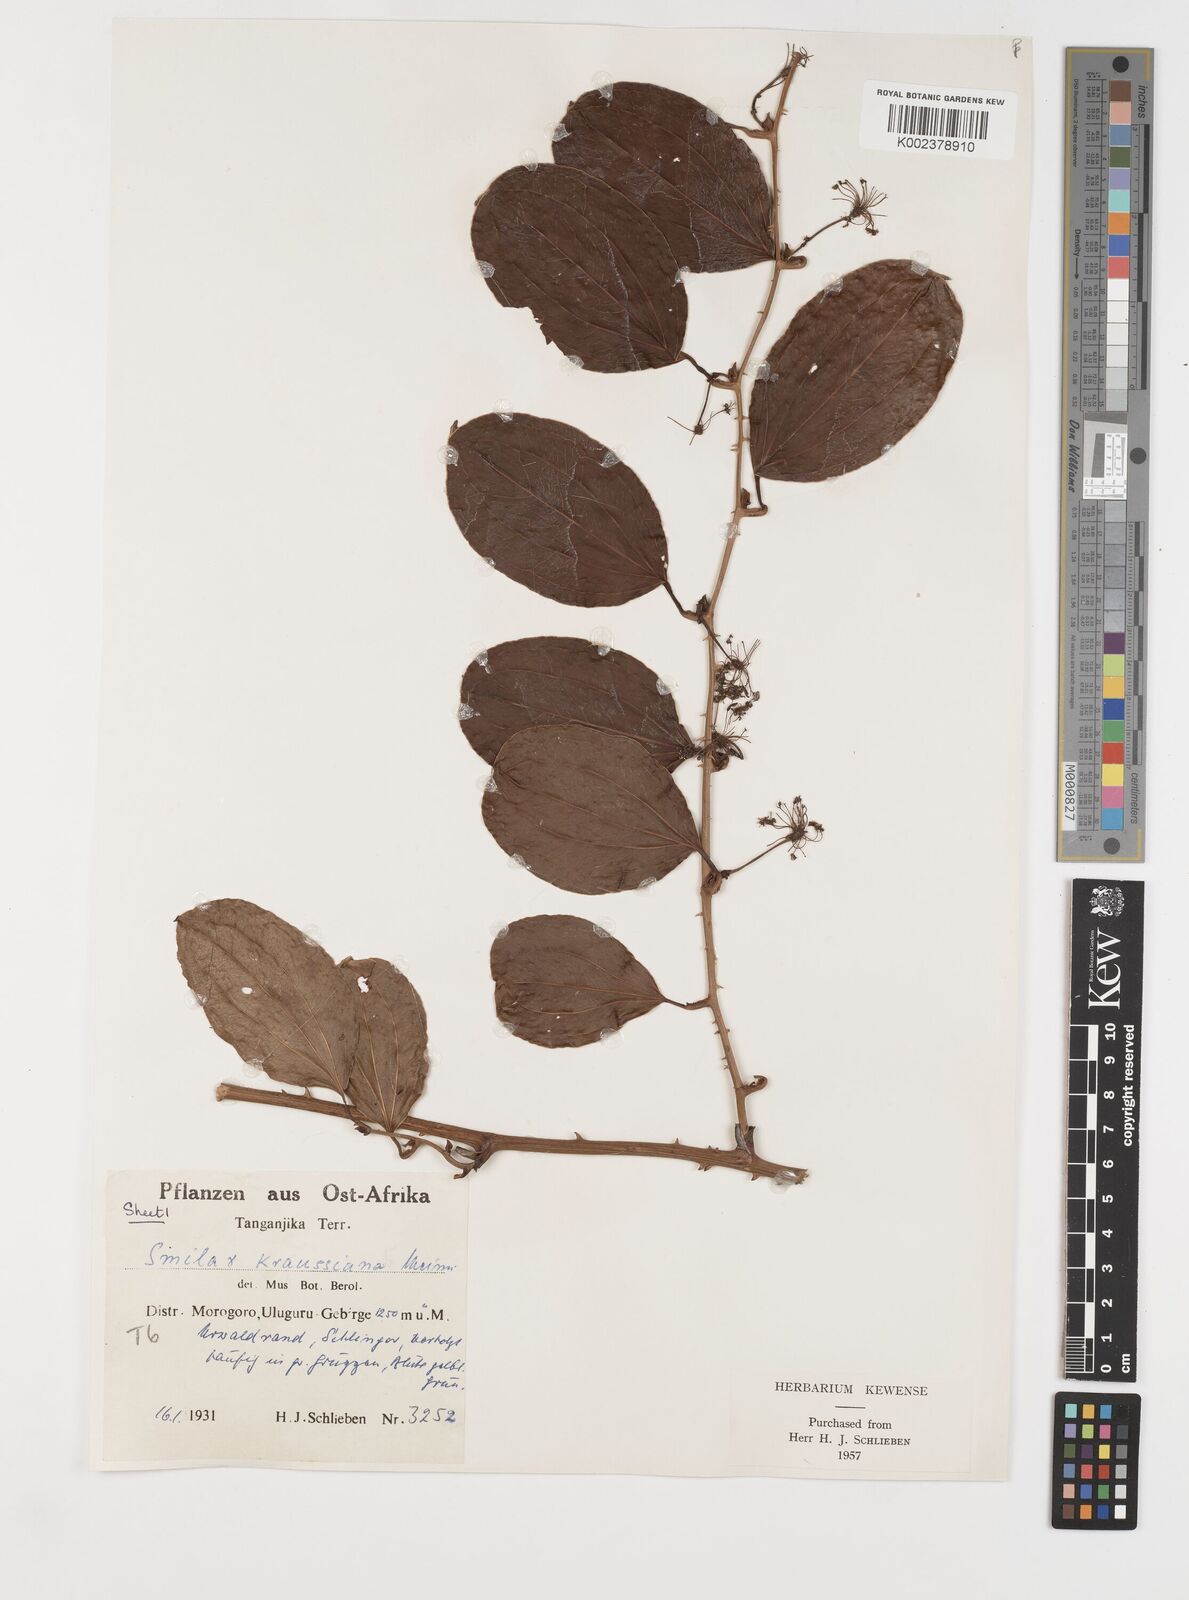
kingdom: Plantae
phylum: Tracheophyta
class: Liliopsida
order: Liliales
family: Smilacaceae
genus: Smilax
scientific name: Smilax anceps
